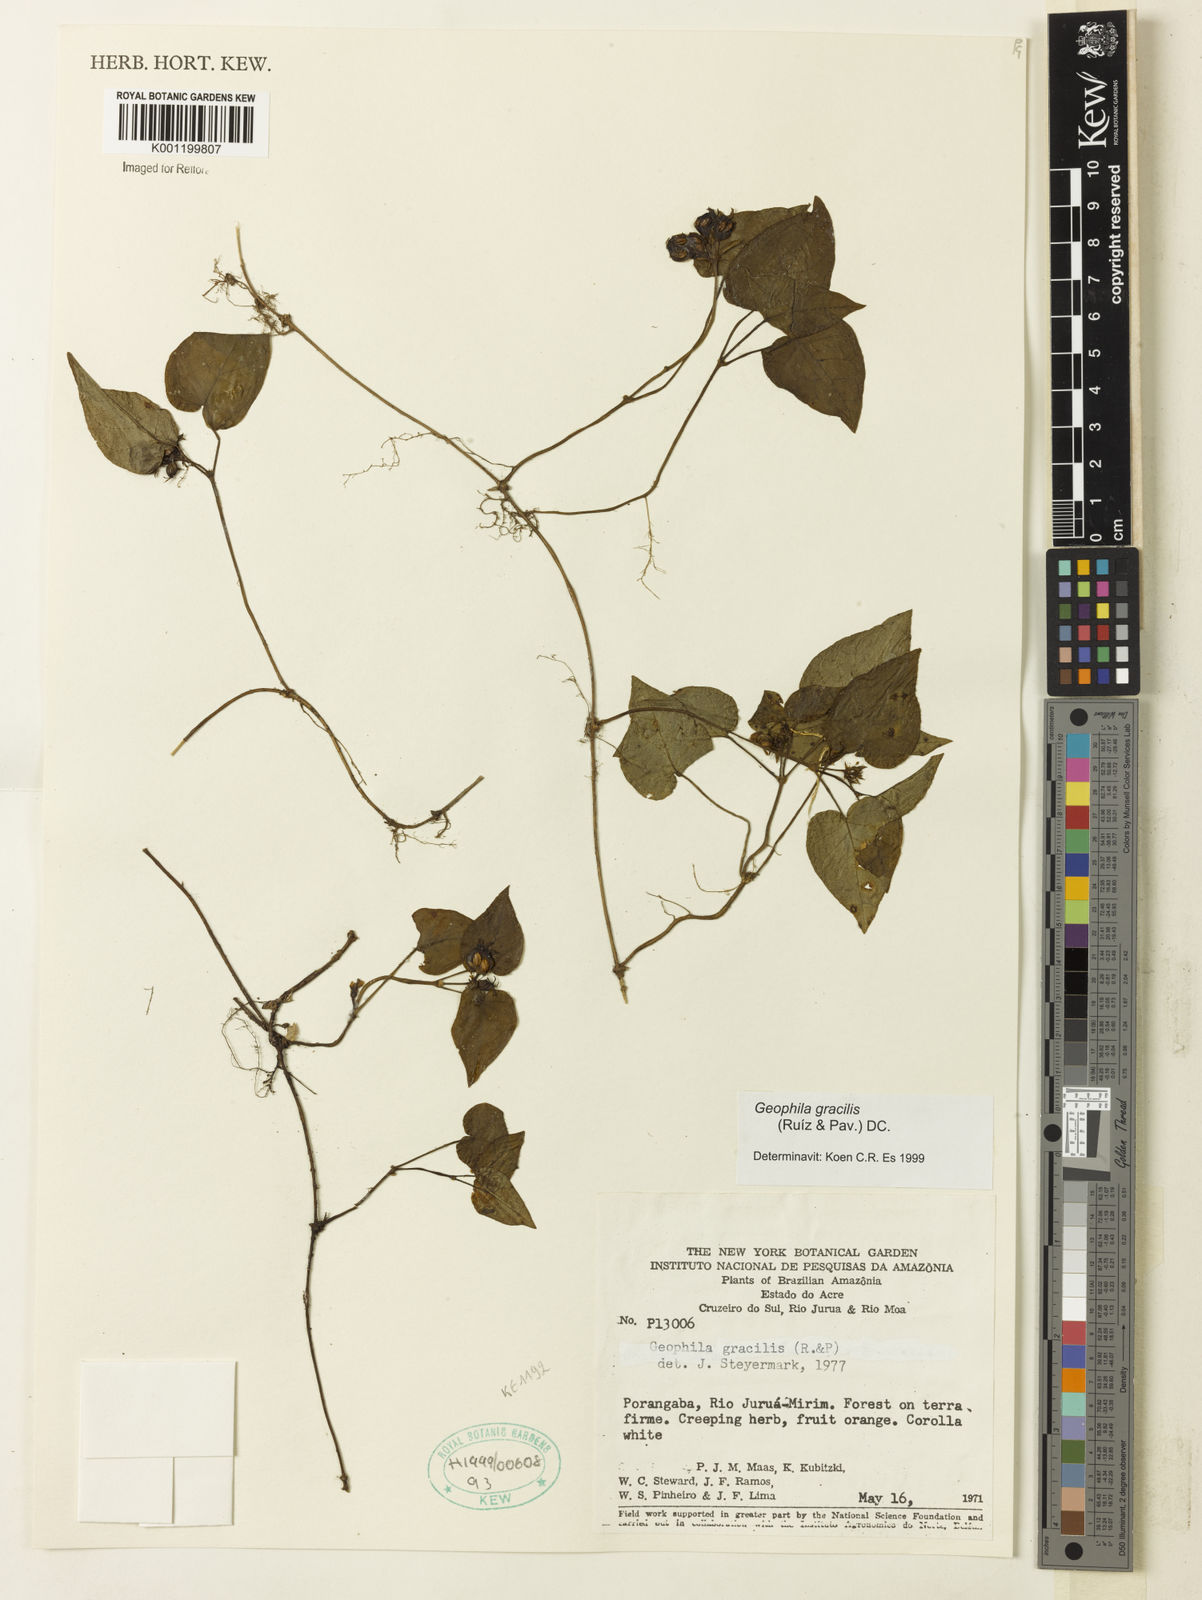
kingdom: Plantae
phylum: Tracheophyta
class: Magnoliopsida
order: Gentianales
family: Rubiaceae
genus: Geophila
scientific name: Geophila gracilis
